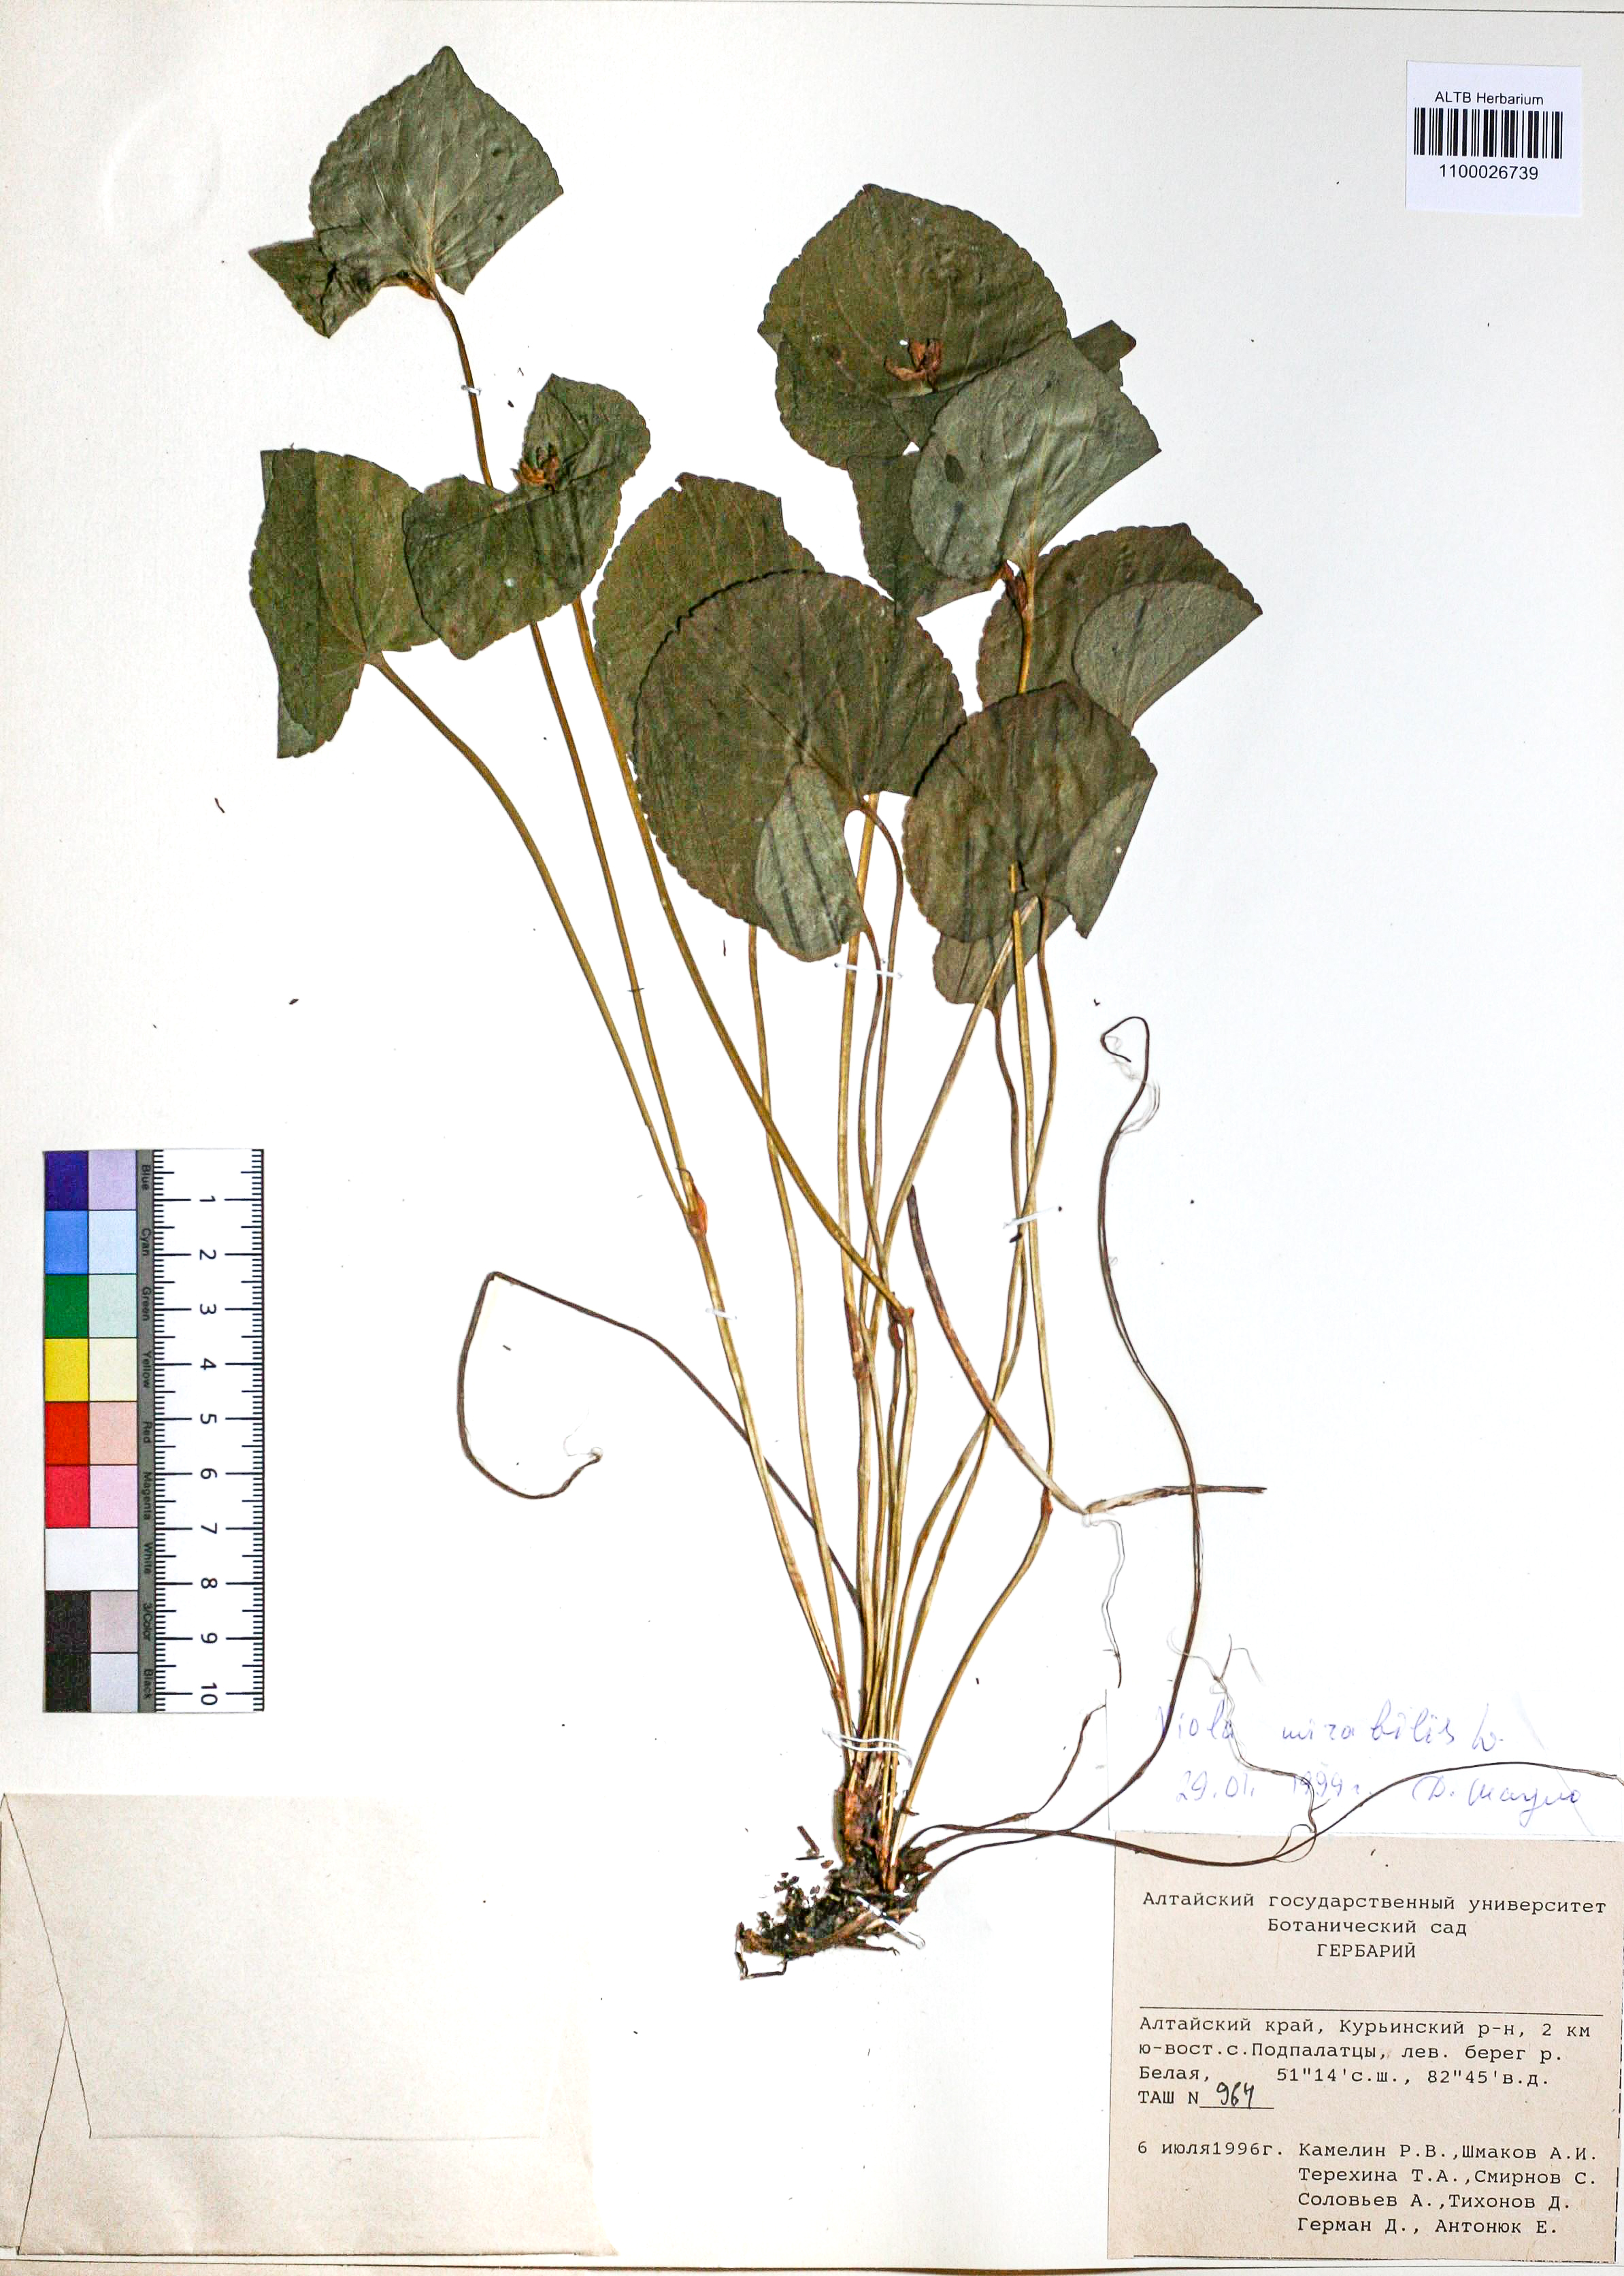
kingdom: Plantae
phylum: Tracheophyta
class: Magnoliopsida
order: Malpighiales
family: Violaceae
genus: Viola
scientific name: Viola mirabilis
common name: Wonder violet
